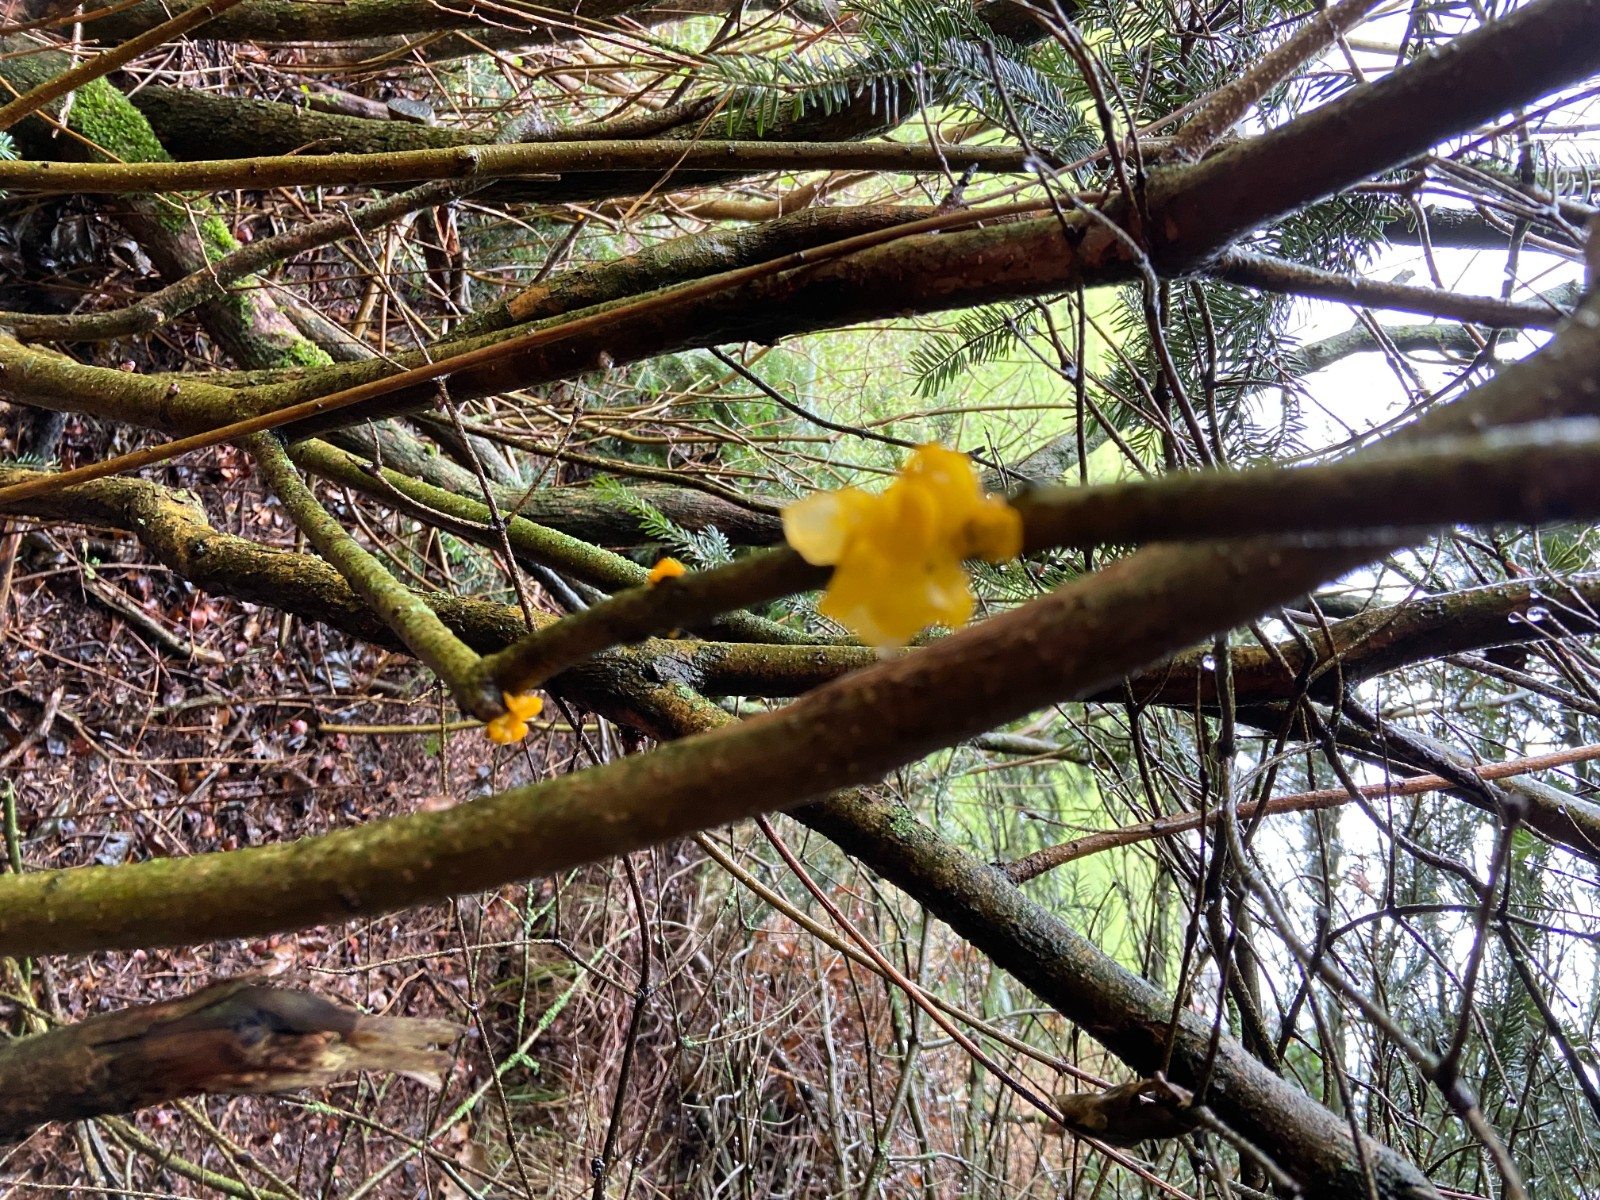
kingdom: Fungi
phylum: Basidiomycota
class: Tremellomycetes
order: Tremellales
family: Tremellaceae
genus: Tremella
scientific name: Tremella mesenterica
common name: gul bævresvamp
